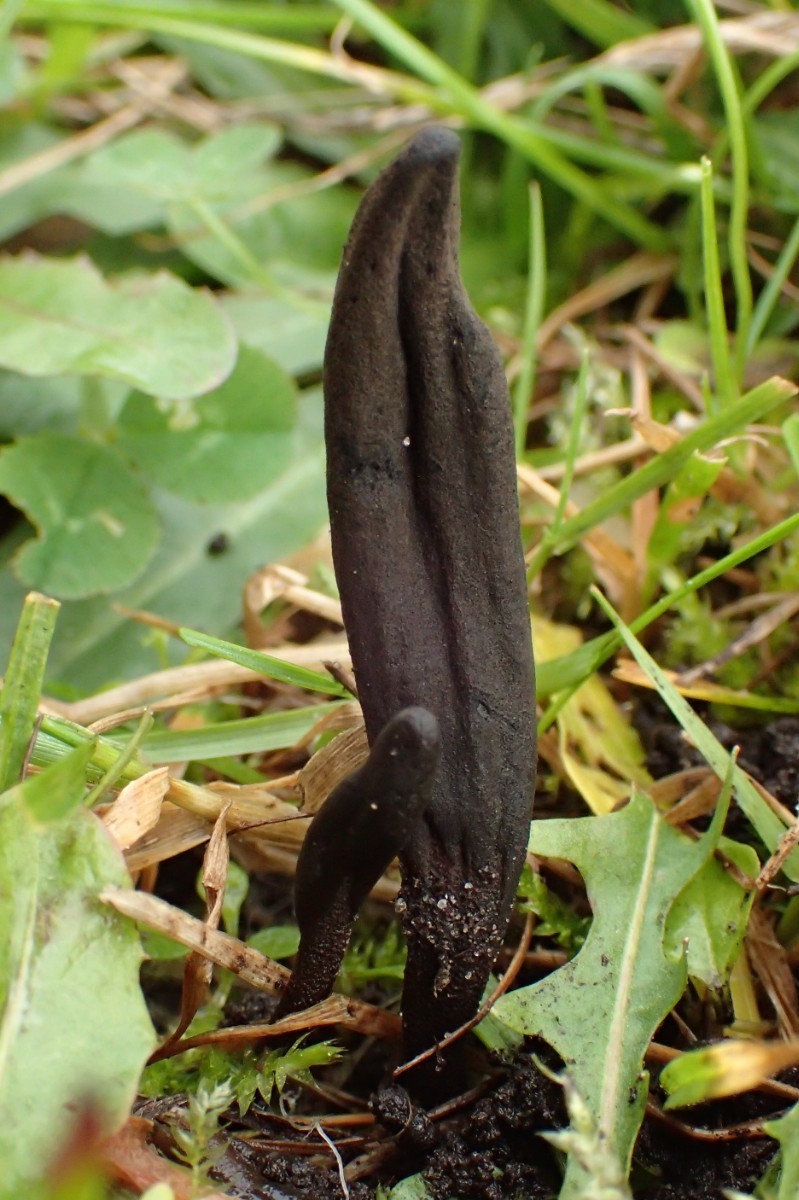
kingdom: Fungi
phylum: Ascomycota
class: Geoglossomycetes
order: Geoglossales
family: Geoglossaceae
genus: Geoglossum
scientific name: Geoglossum
